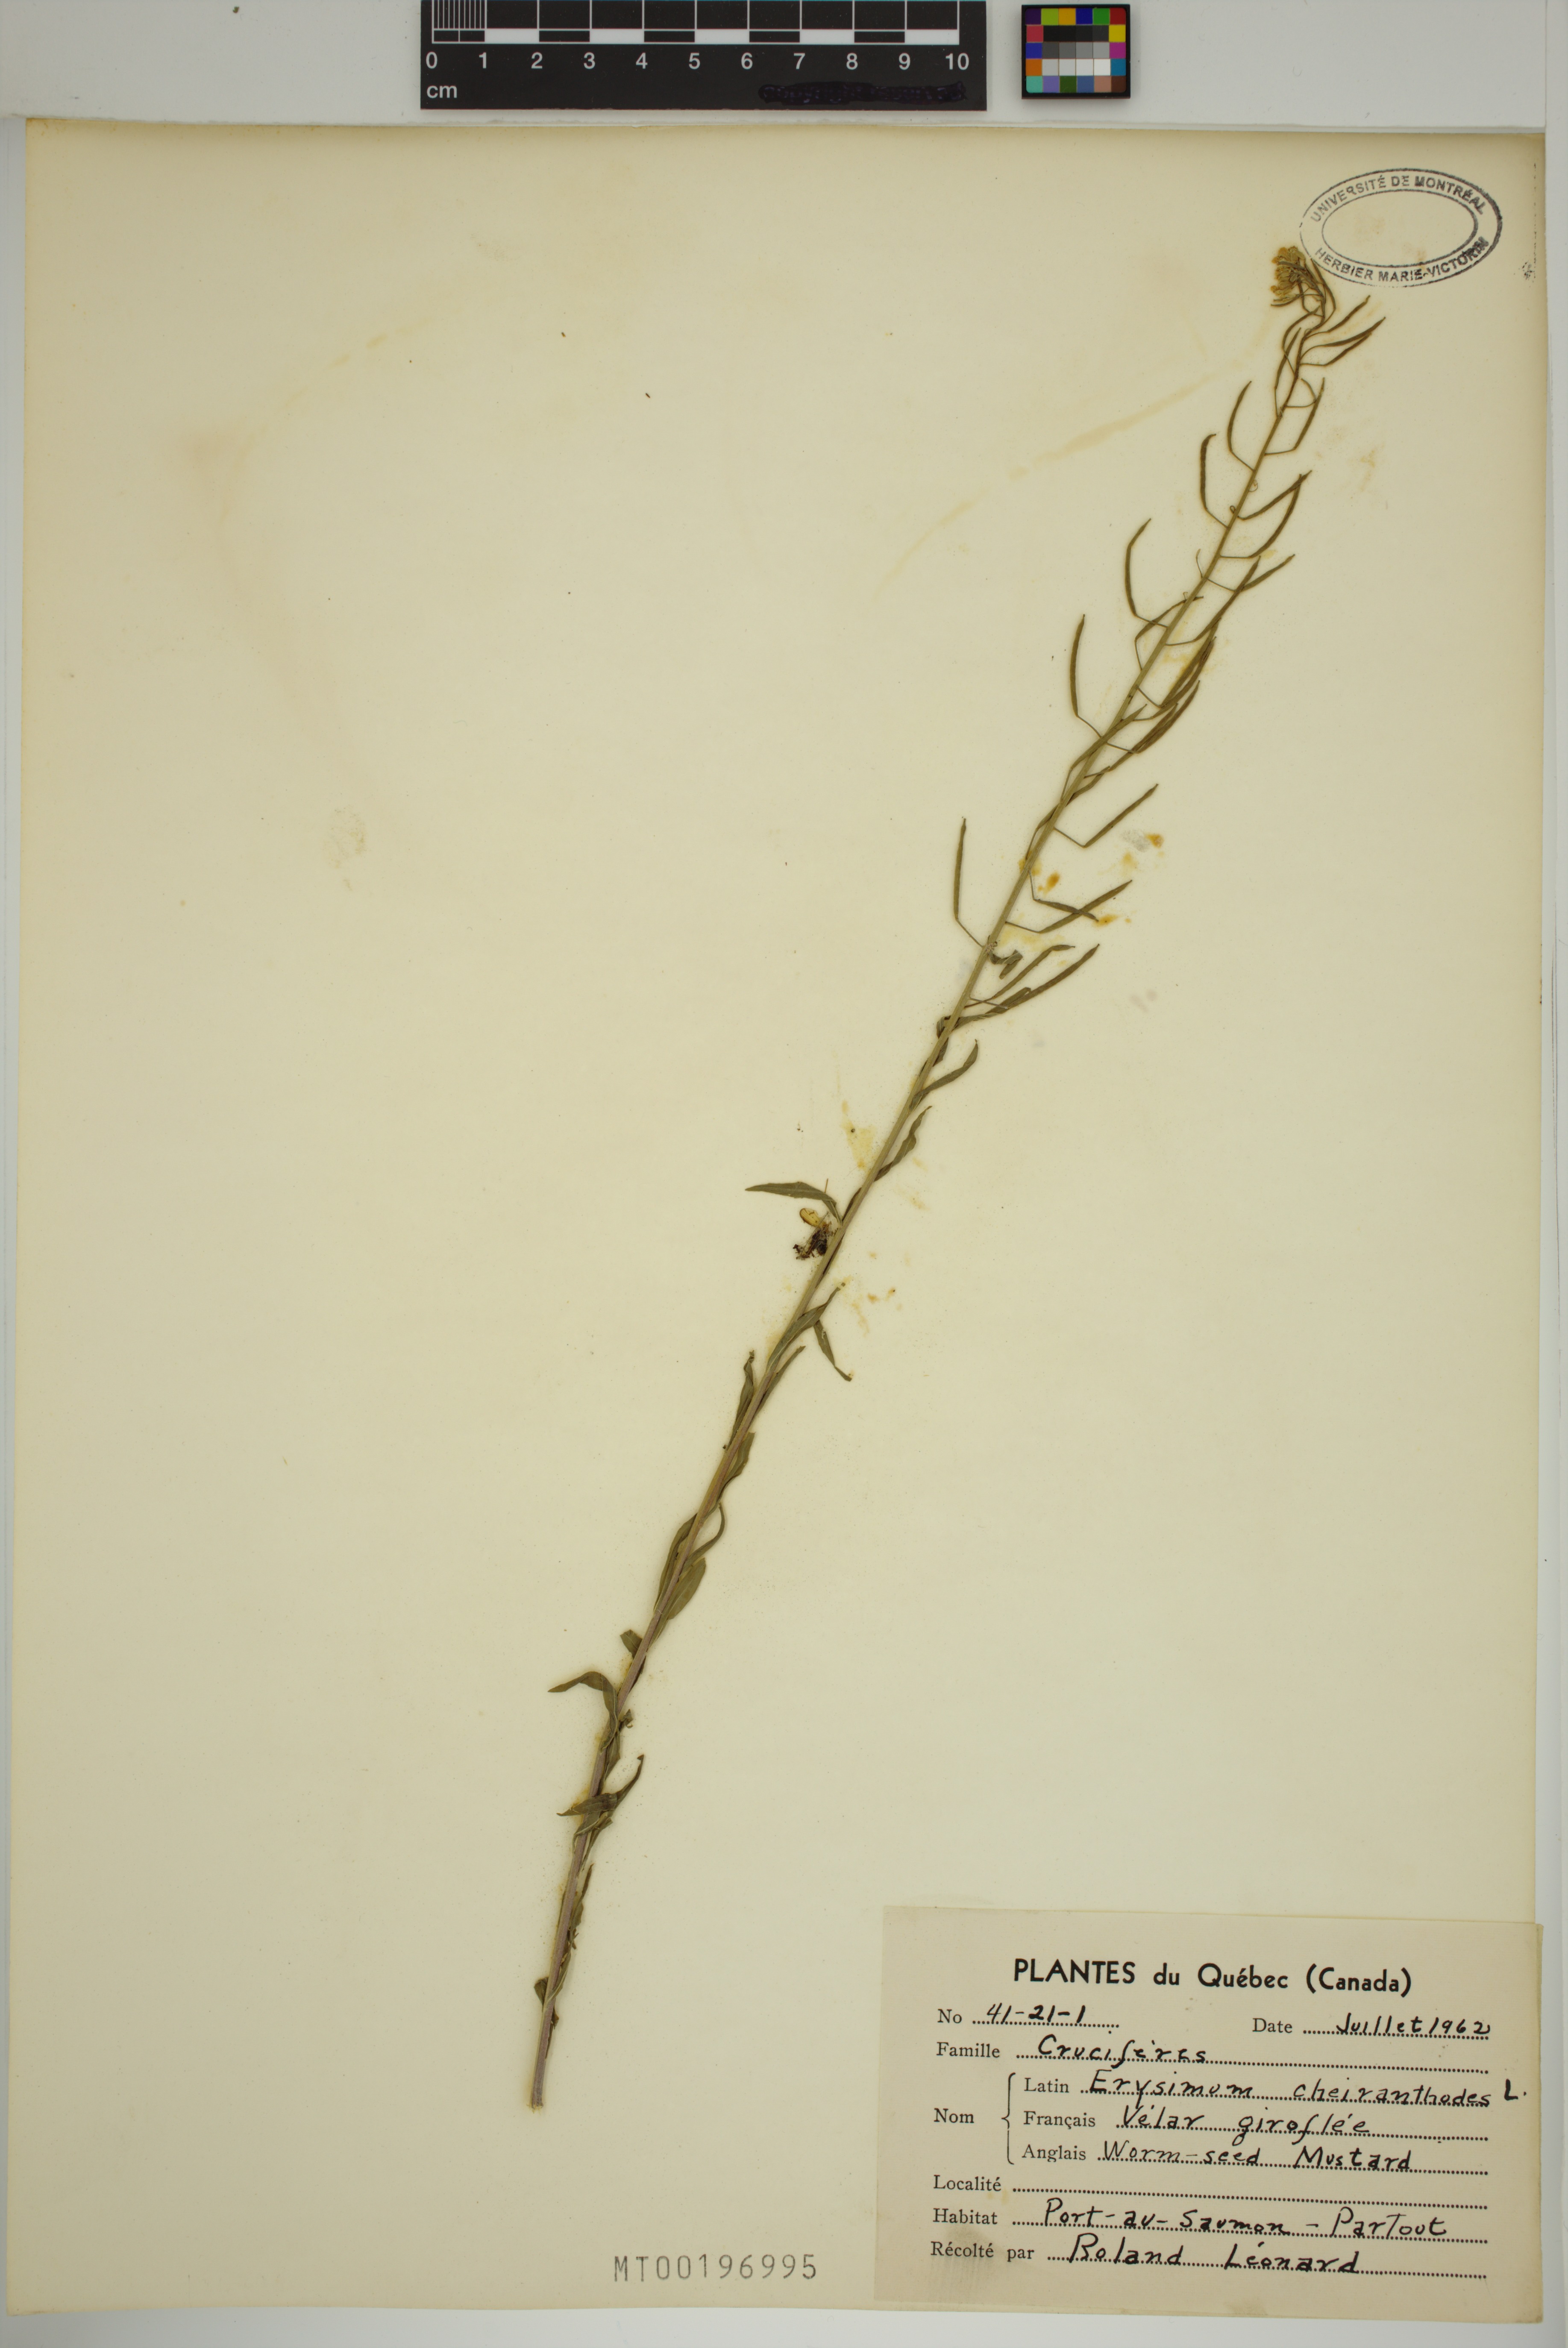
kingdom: Plantae
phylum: Tracheophyta
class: Magnoliopsida
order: Brassicales
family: Brassicaceae
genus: Erysimum
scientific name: Erysimum cheiranthoides
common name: Treacle mustard
